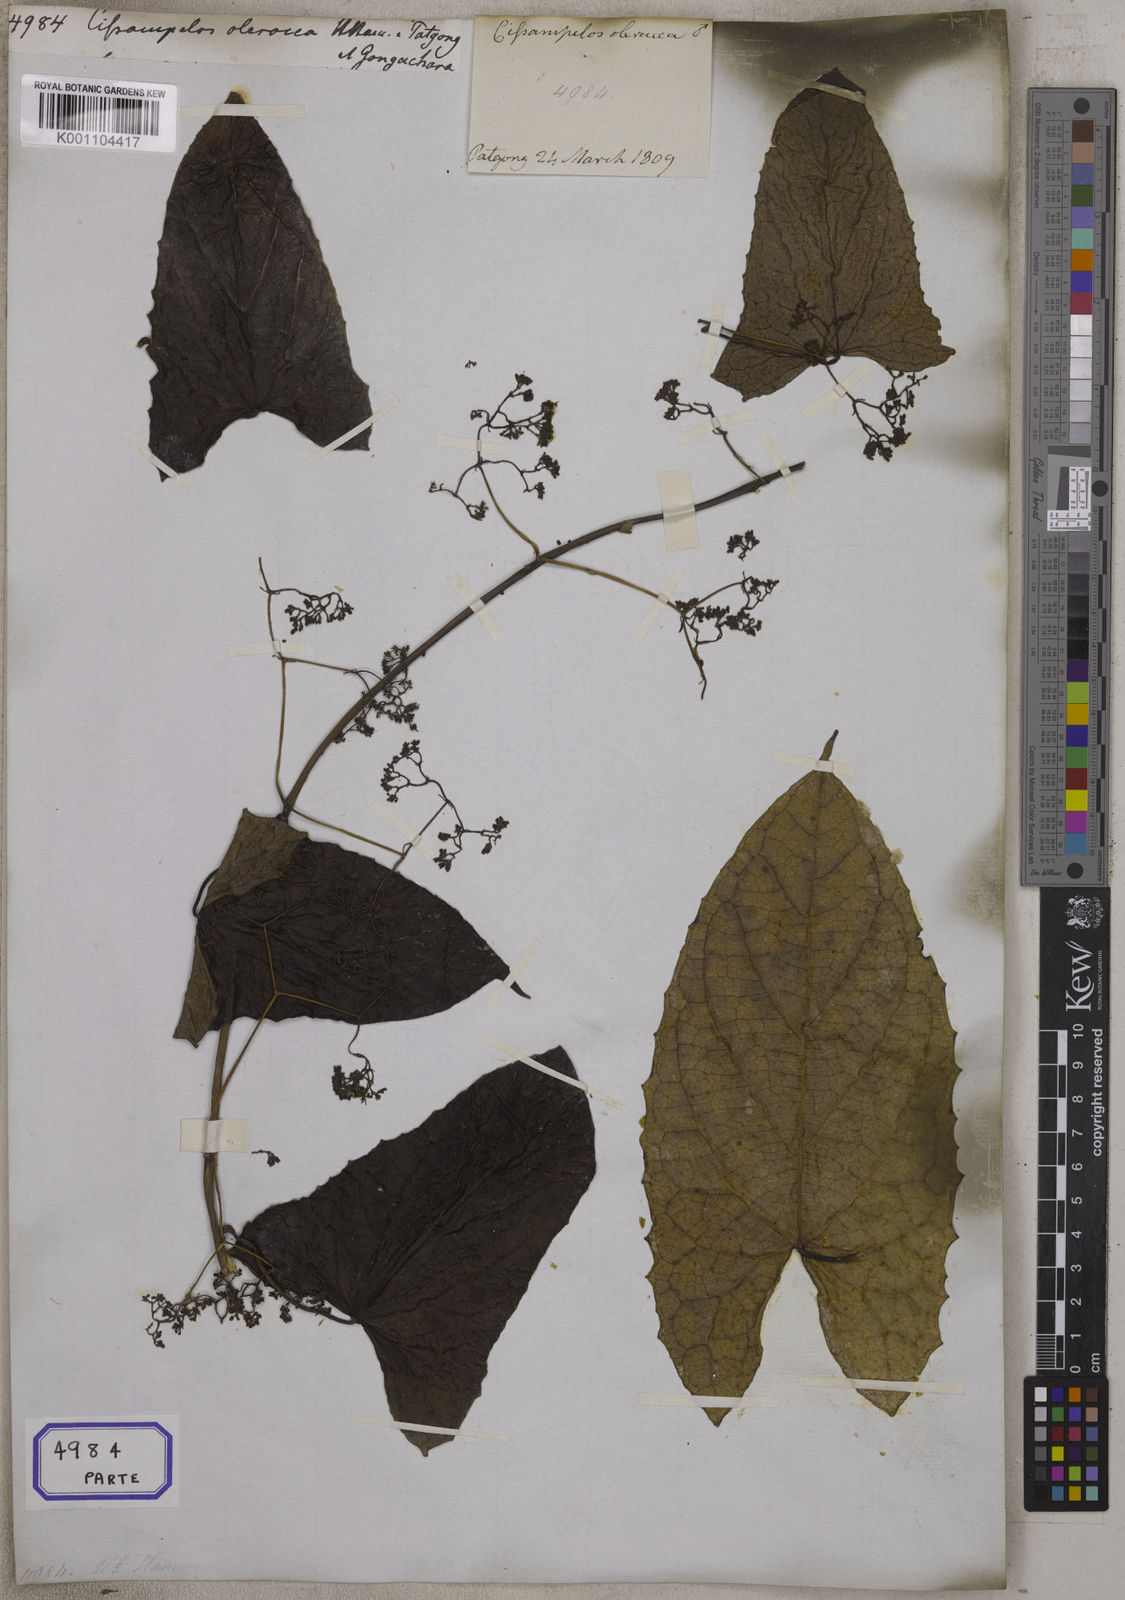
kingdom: Plantae
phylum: Tracheophyta
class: Magnoliopsida
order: Ranunculales
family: Menispermaceae
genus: Cissampelos
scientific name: Cissampelos
